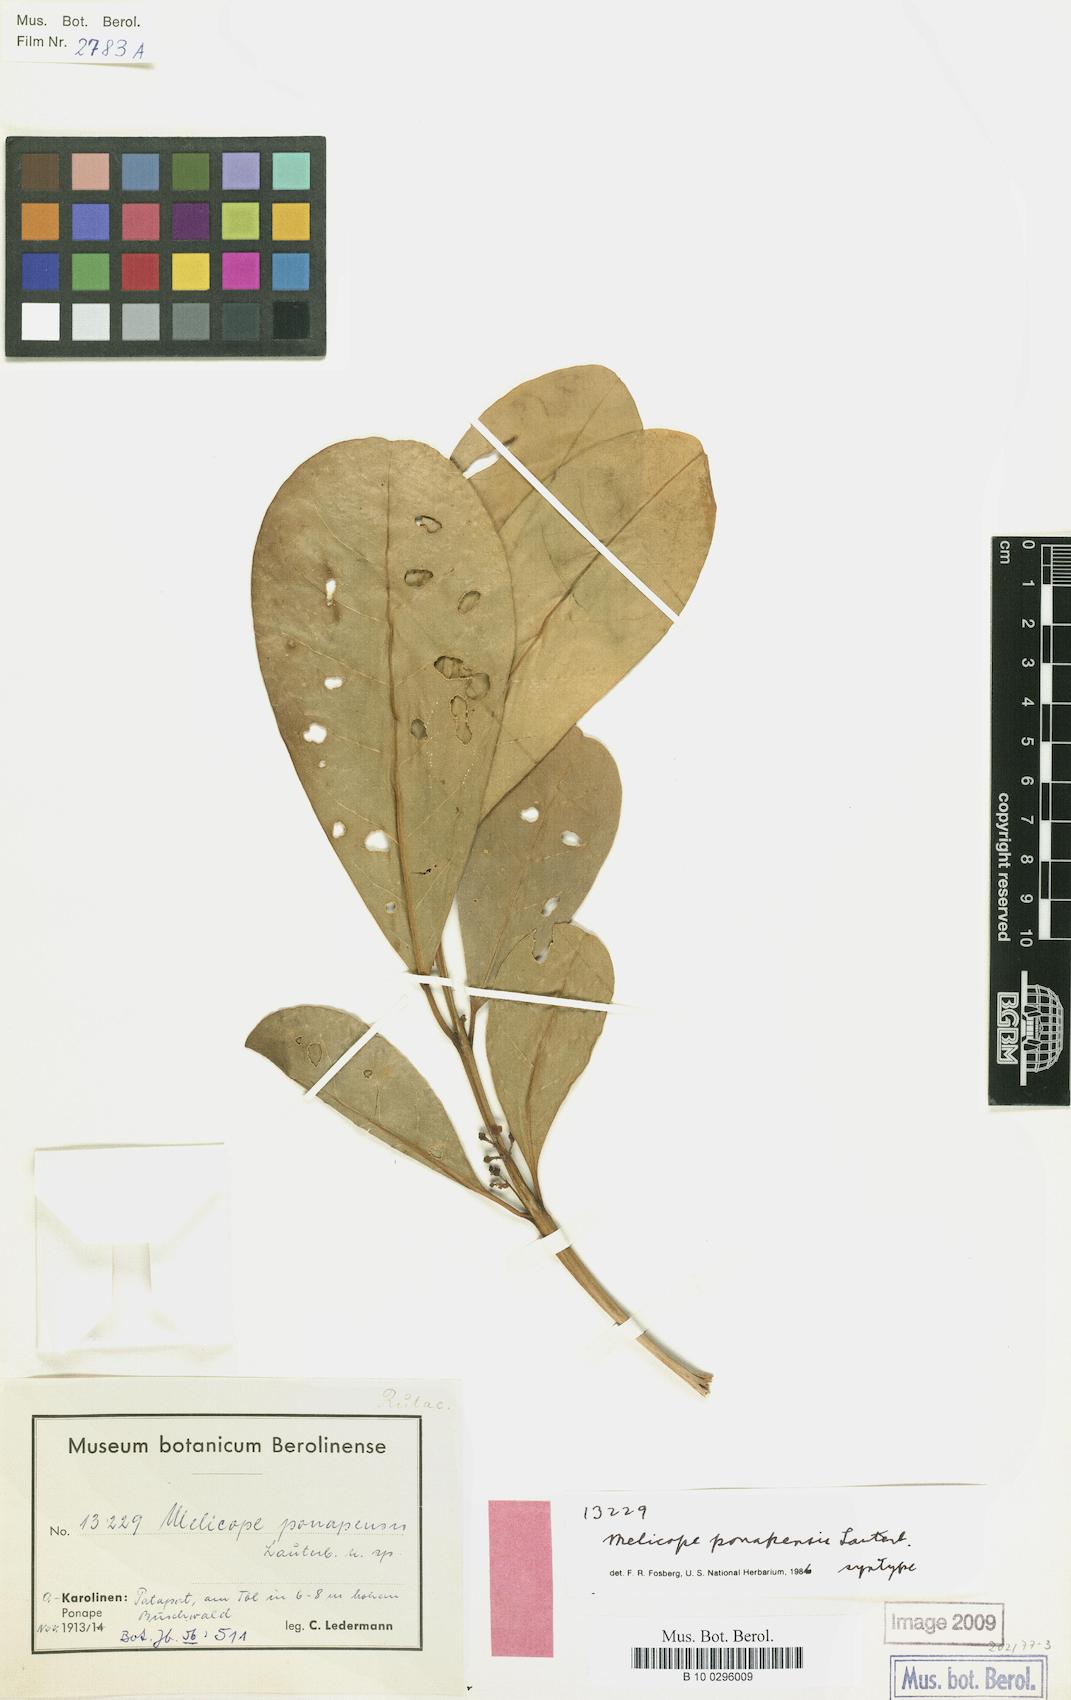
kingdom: Plantae
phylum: Tracheophyta
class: Magnoliopsida
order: Sapindales
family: Rutaceae
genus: Melicope
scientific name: Melicope ponapensis
